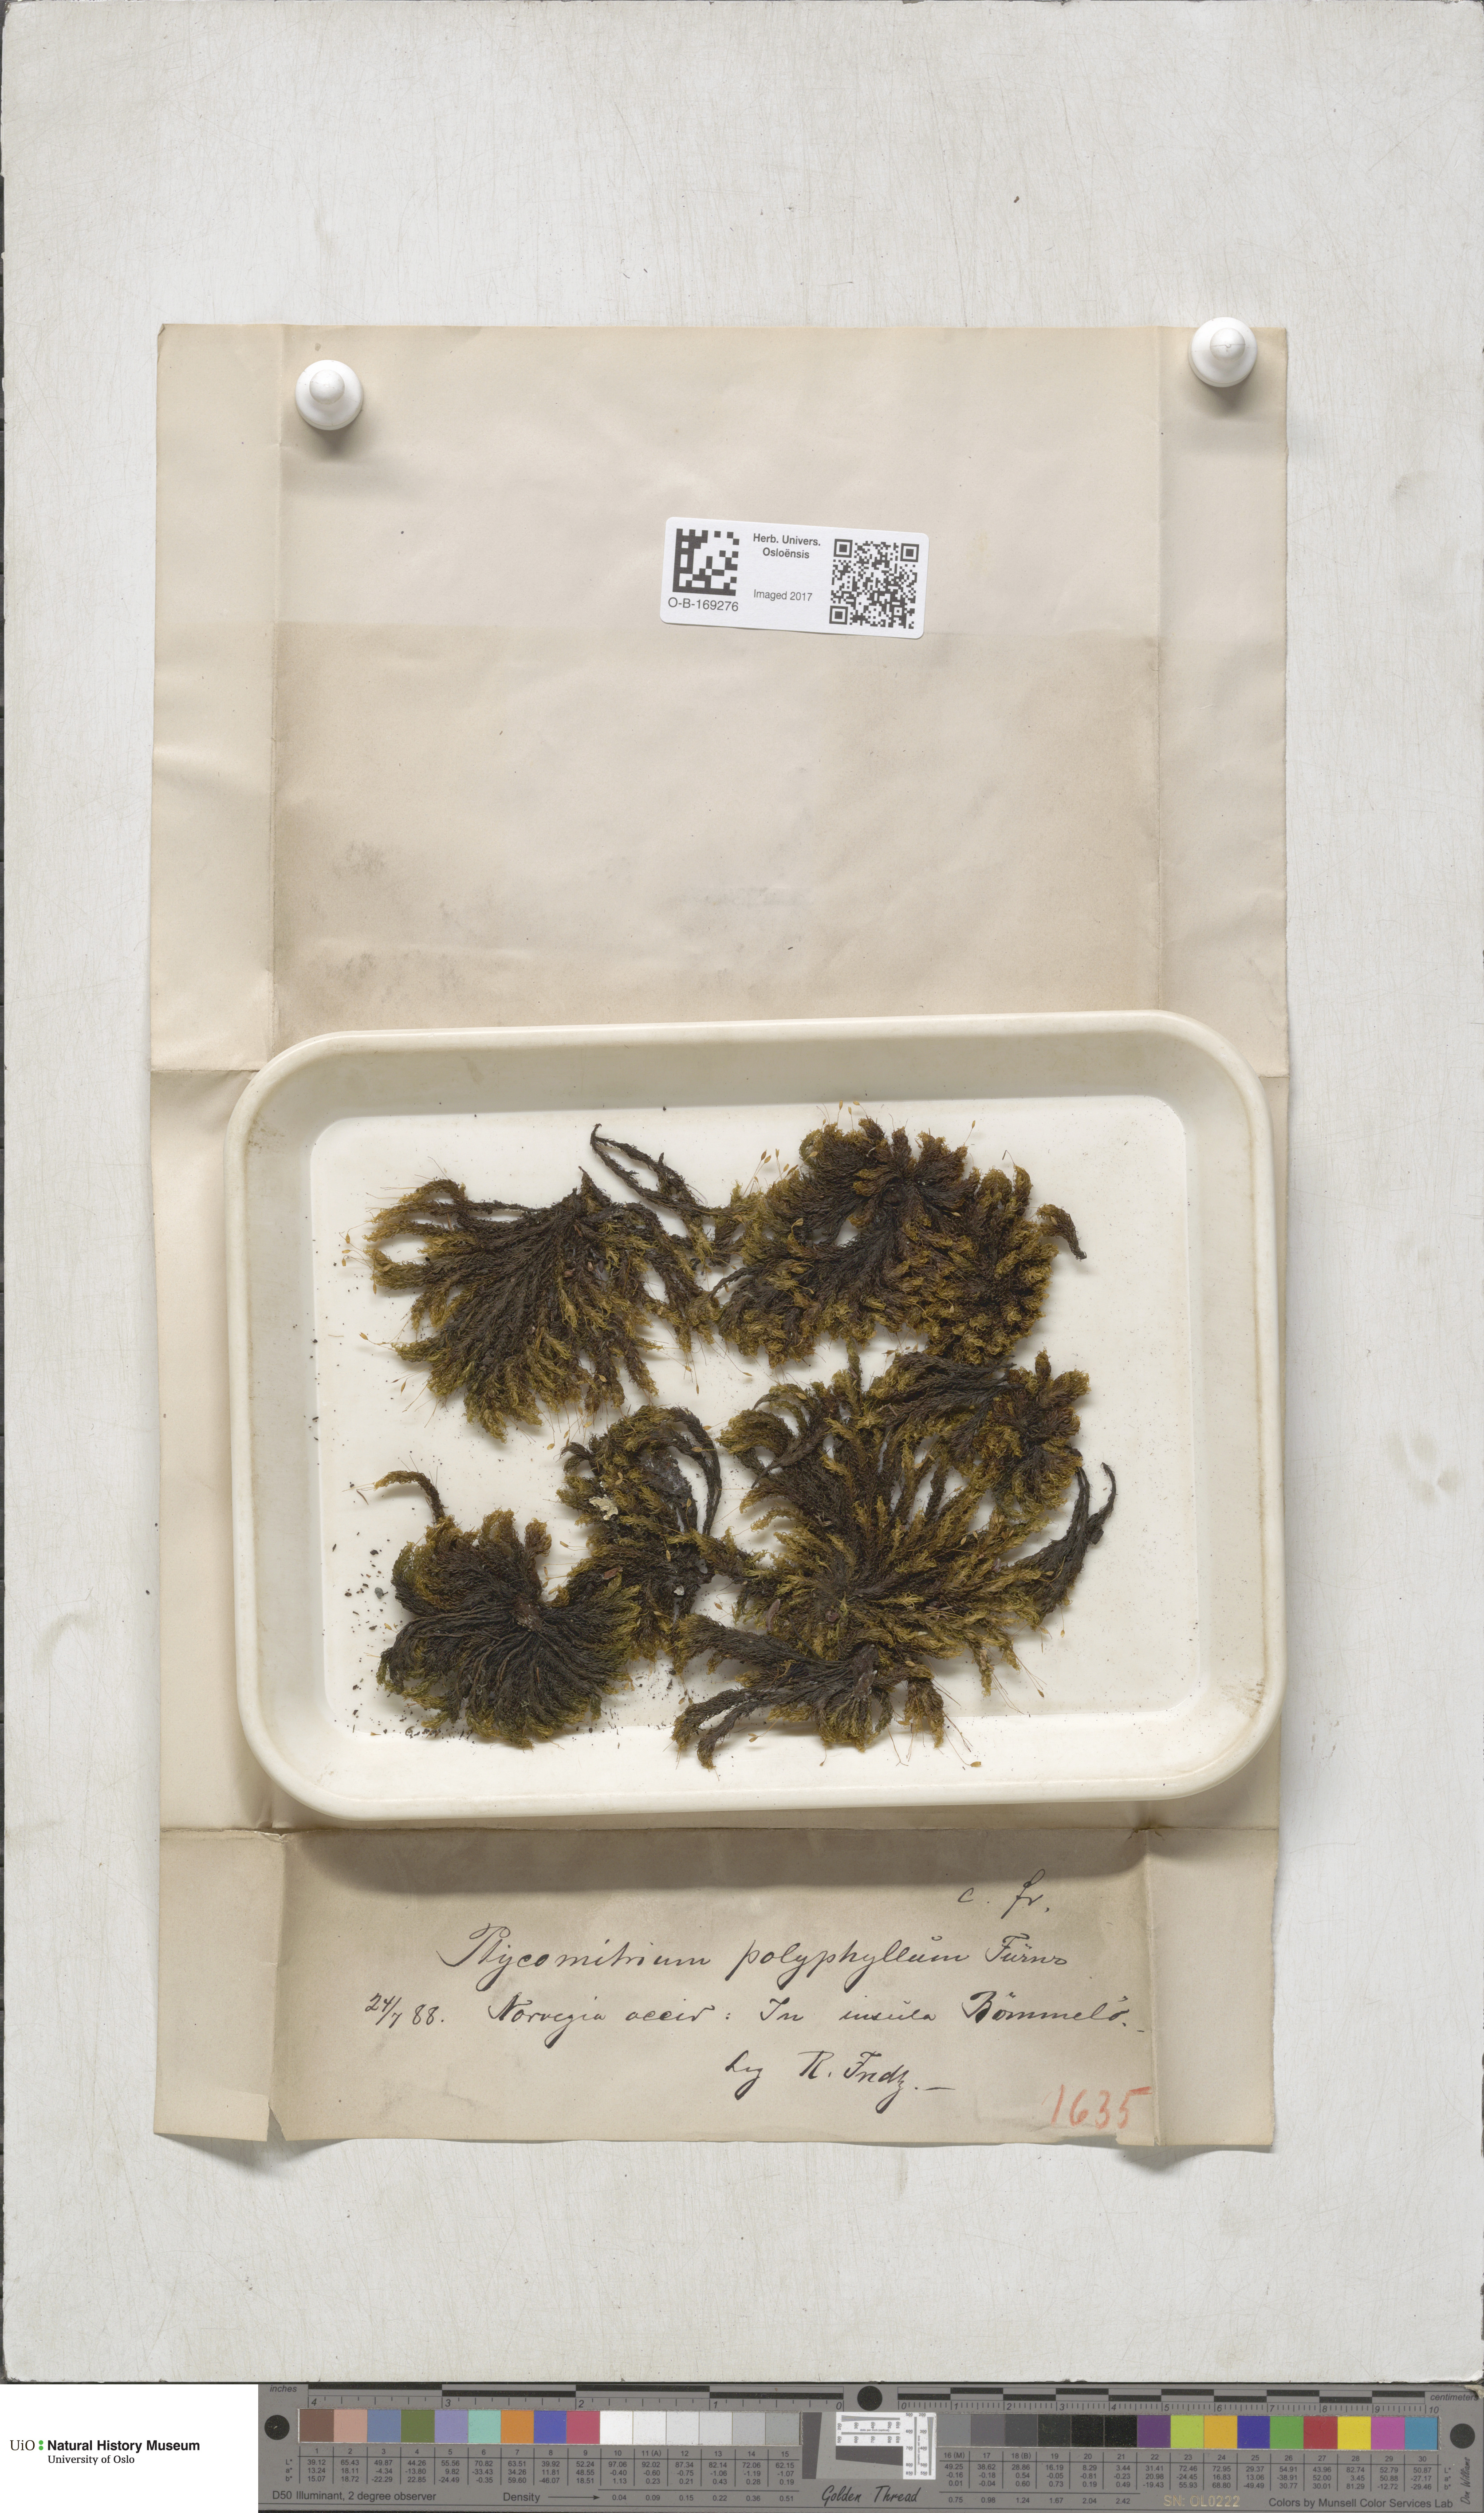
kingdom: Plantae
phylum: Bryophyta
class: Bryopsida
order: Grimmiales
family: Ptychomitriaceae
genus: Ptychomitrium
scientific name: Ptychomitrium polyphyllum
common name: Greater pincushion
